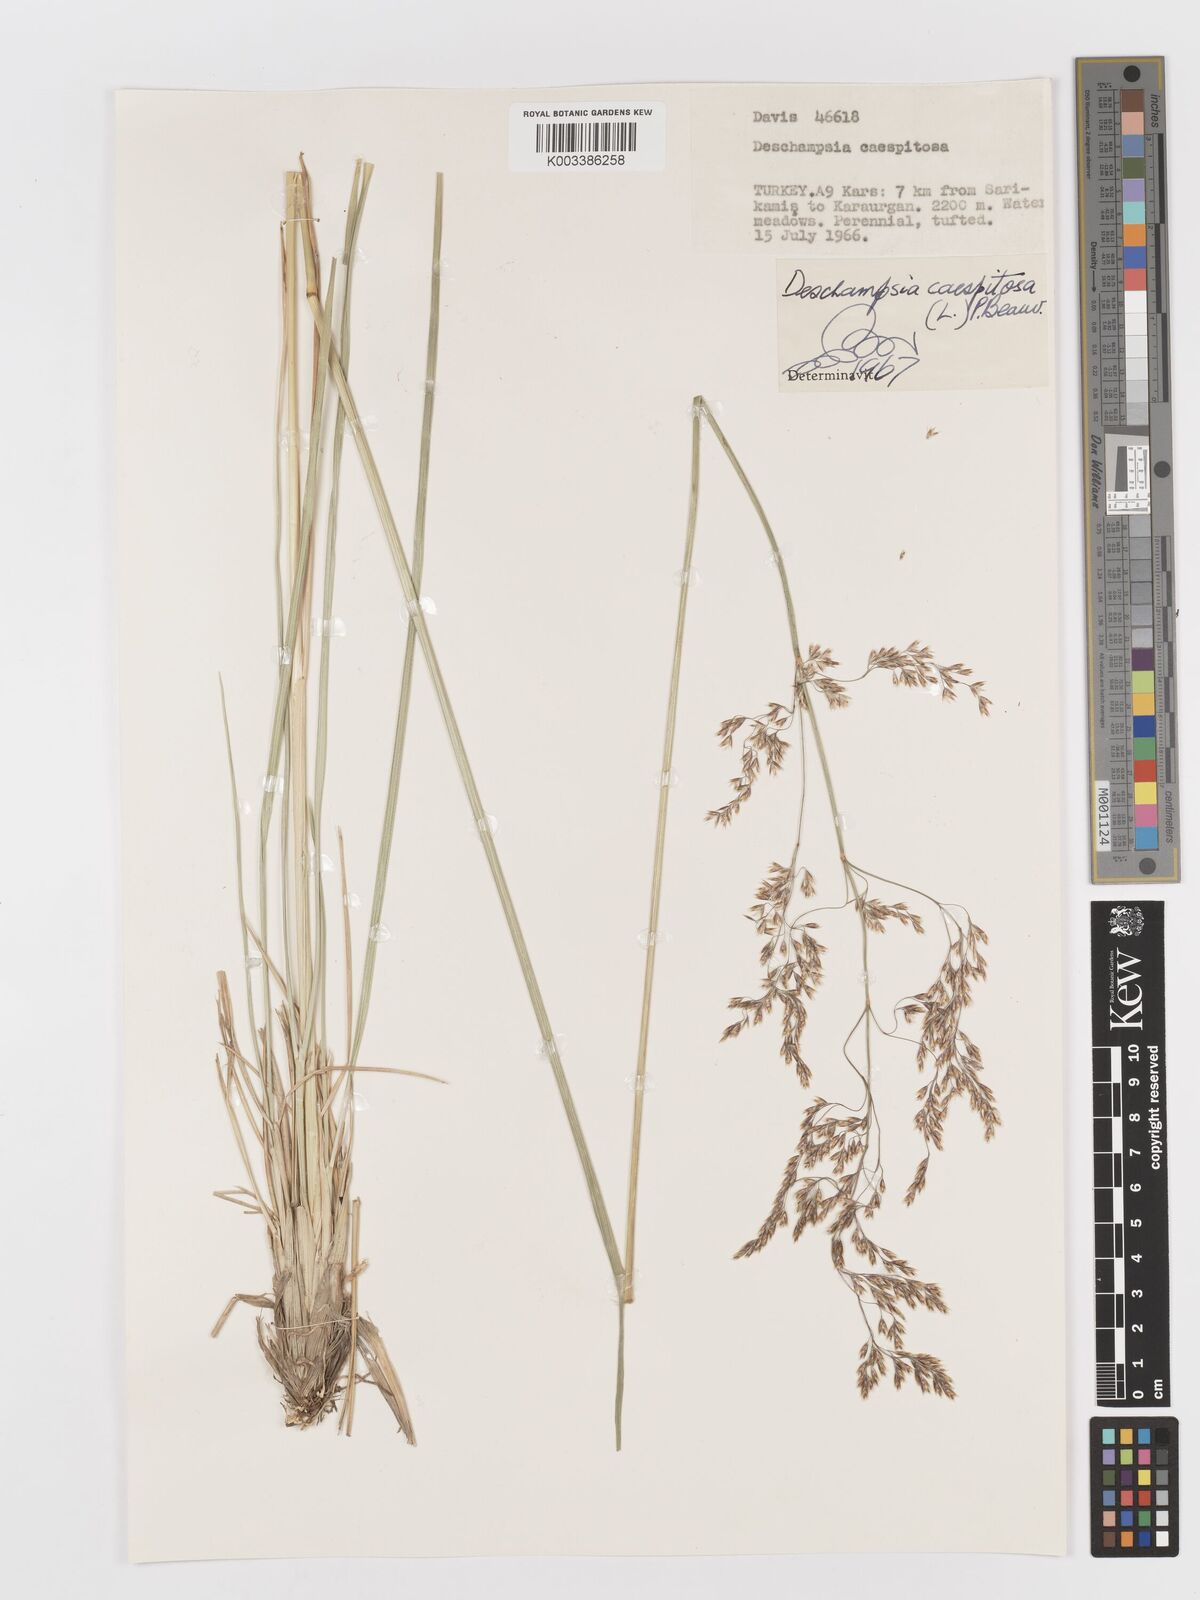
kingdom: Plantae
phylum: Tracheophyta
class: Liliopsida
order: Poales
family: Poaceae
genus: Deschampsia
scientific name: Deschampsia cespitosa
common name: Tufted hair-grass
